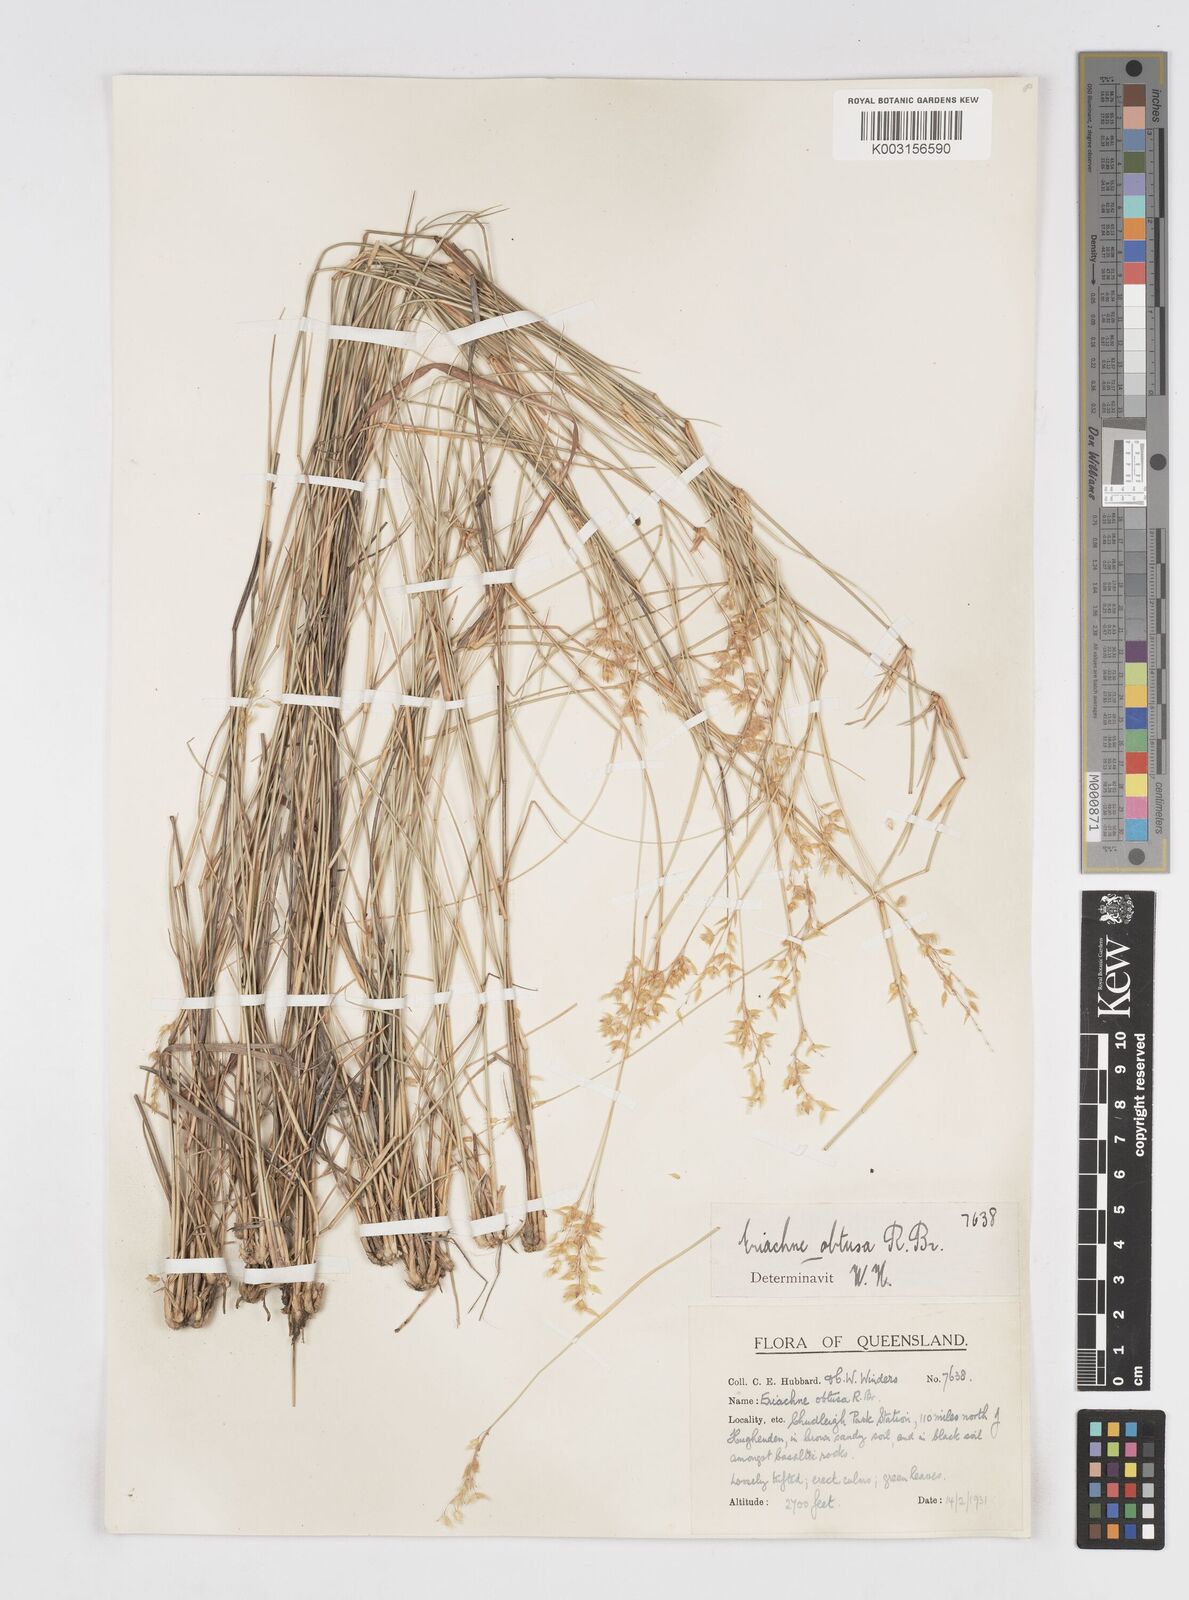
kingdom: Plantae
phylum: Tracheophyta
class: Liliopsida
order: Poales
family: Poaceae
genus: Eriachne
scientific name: Eriachne obtusa
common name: Northern wanderrie grass
